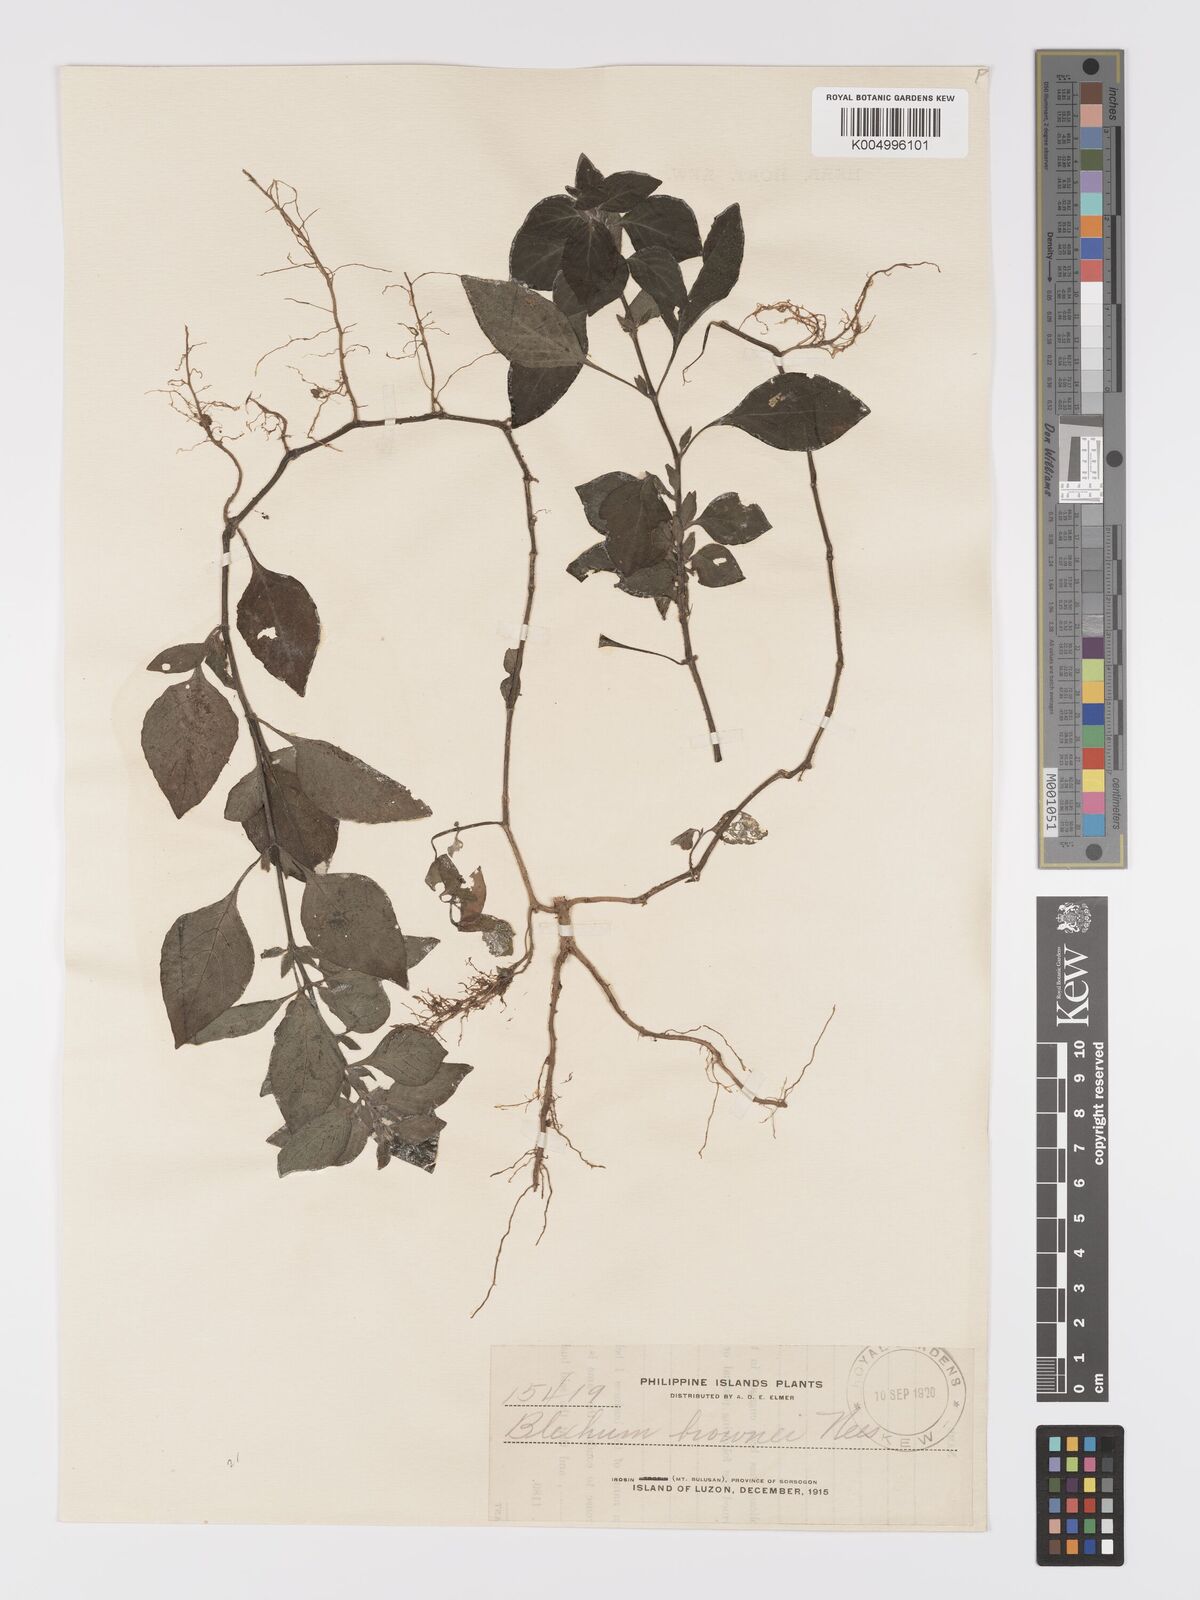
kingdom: Plantae
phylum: Tracheophyta
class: Magnoliopsida
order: Lamiales
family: Acanthaceae
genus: Ruellia
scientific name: Ruellia blechum
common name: Browne's blechum
